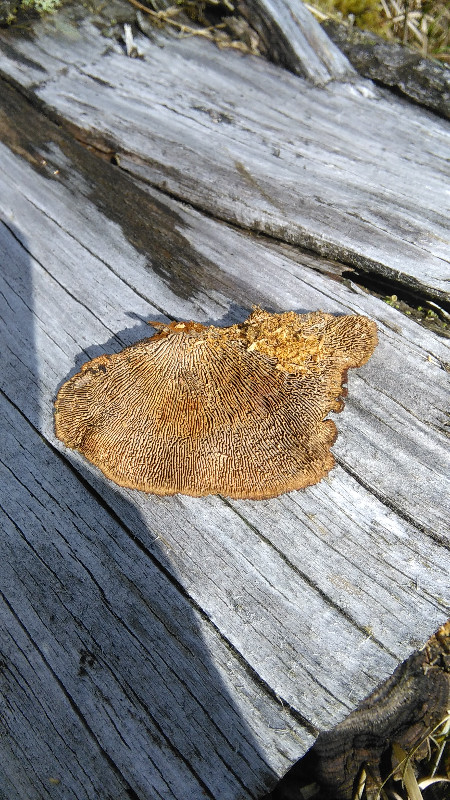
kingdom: Fungi
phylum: Basidiomycota
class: Agaricomycetes
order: Gloeophyllales
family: Gloeophyllaceae
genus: Gloeophyllum
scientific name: Gloeophyllum sepiarium
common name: fyrre-korkhat
